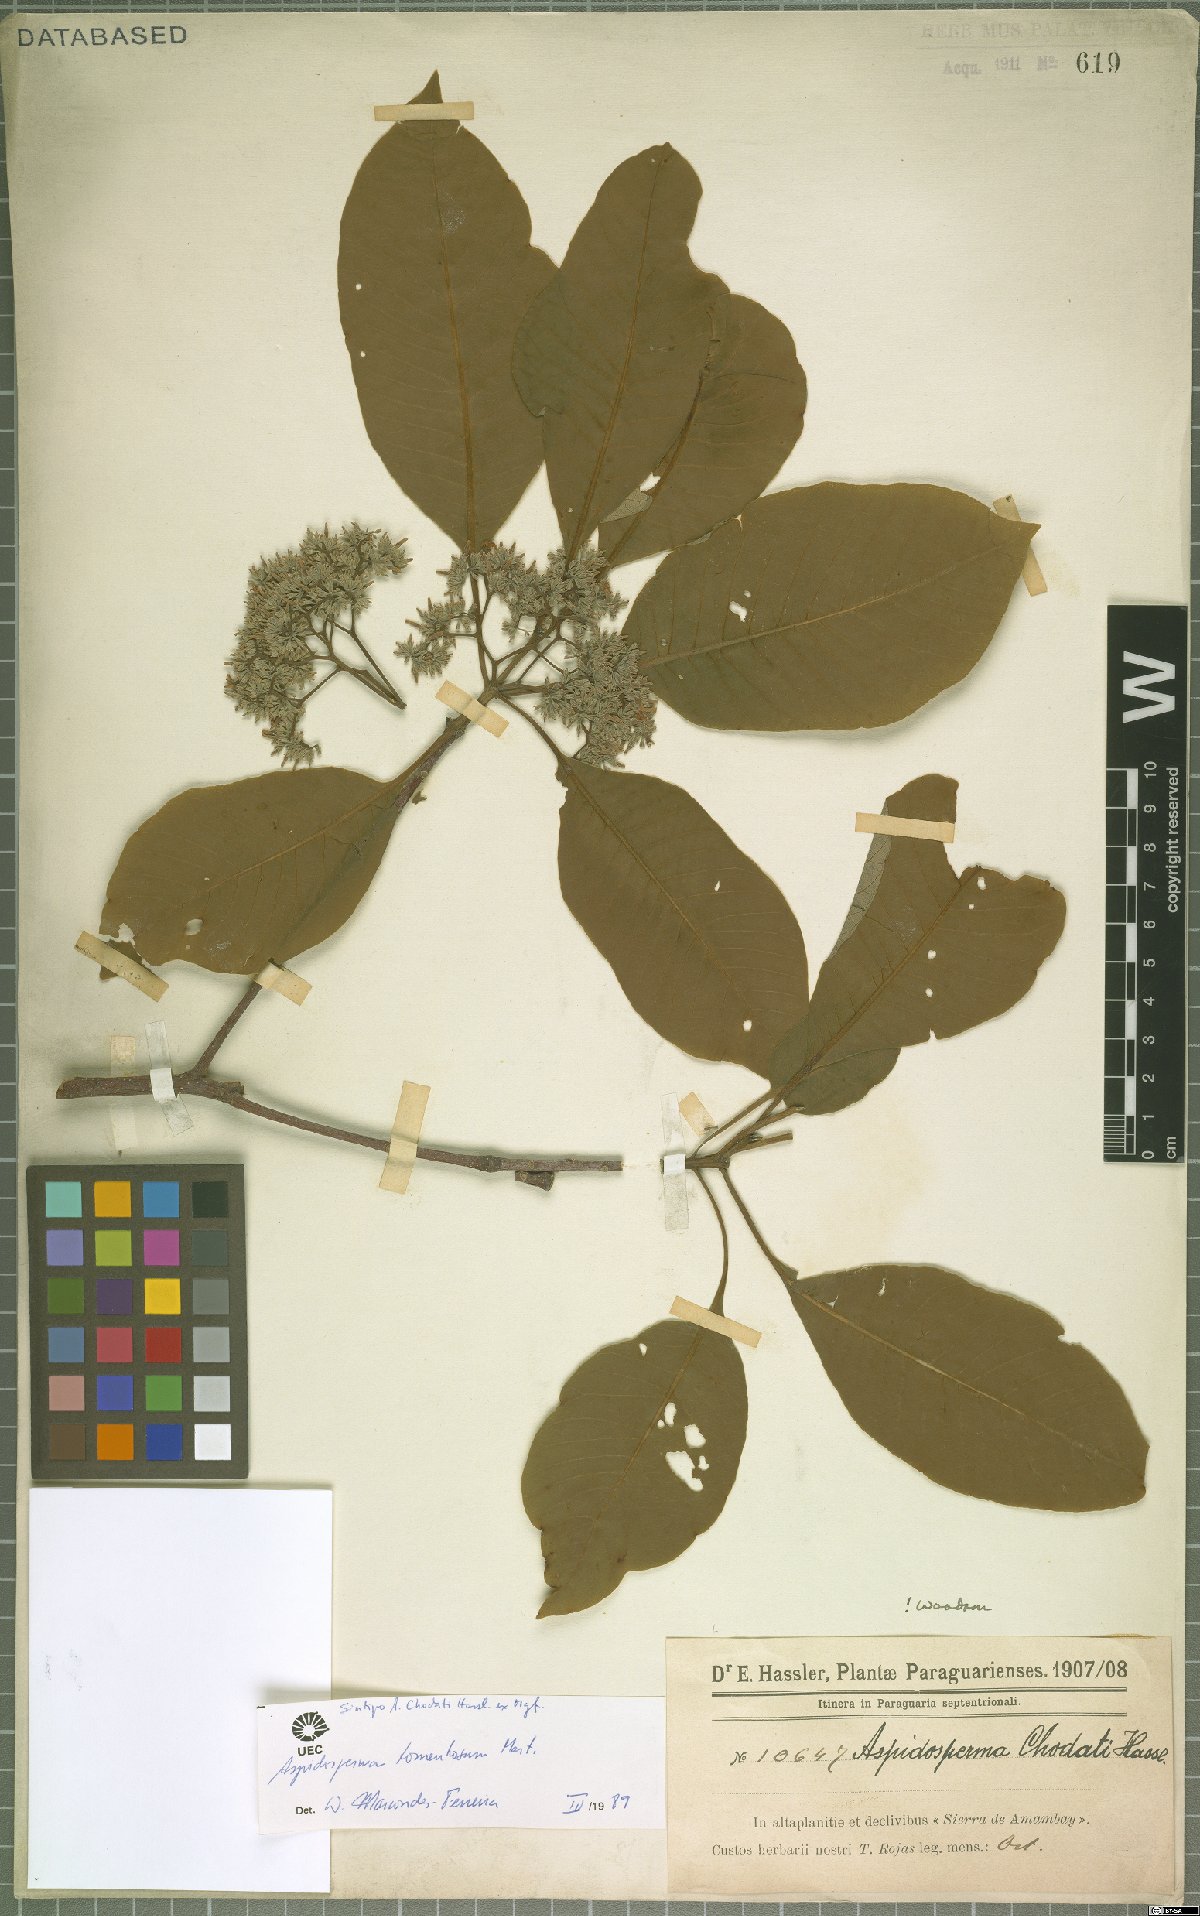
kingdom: Plantae
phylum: Tracheophyta
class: Magnoliopsida
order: Gentianales
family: Apocynaceae
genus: Aspidosperma
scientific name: Aspidosperma tomentosum
